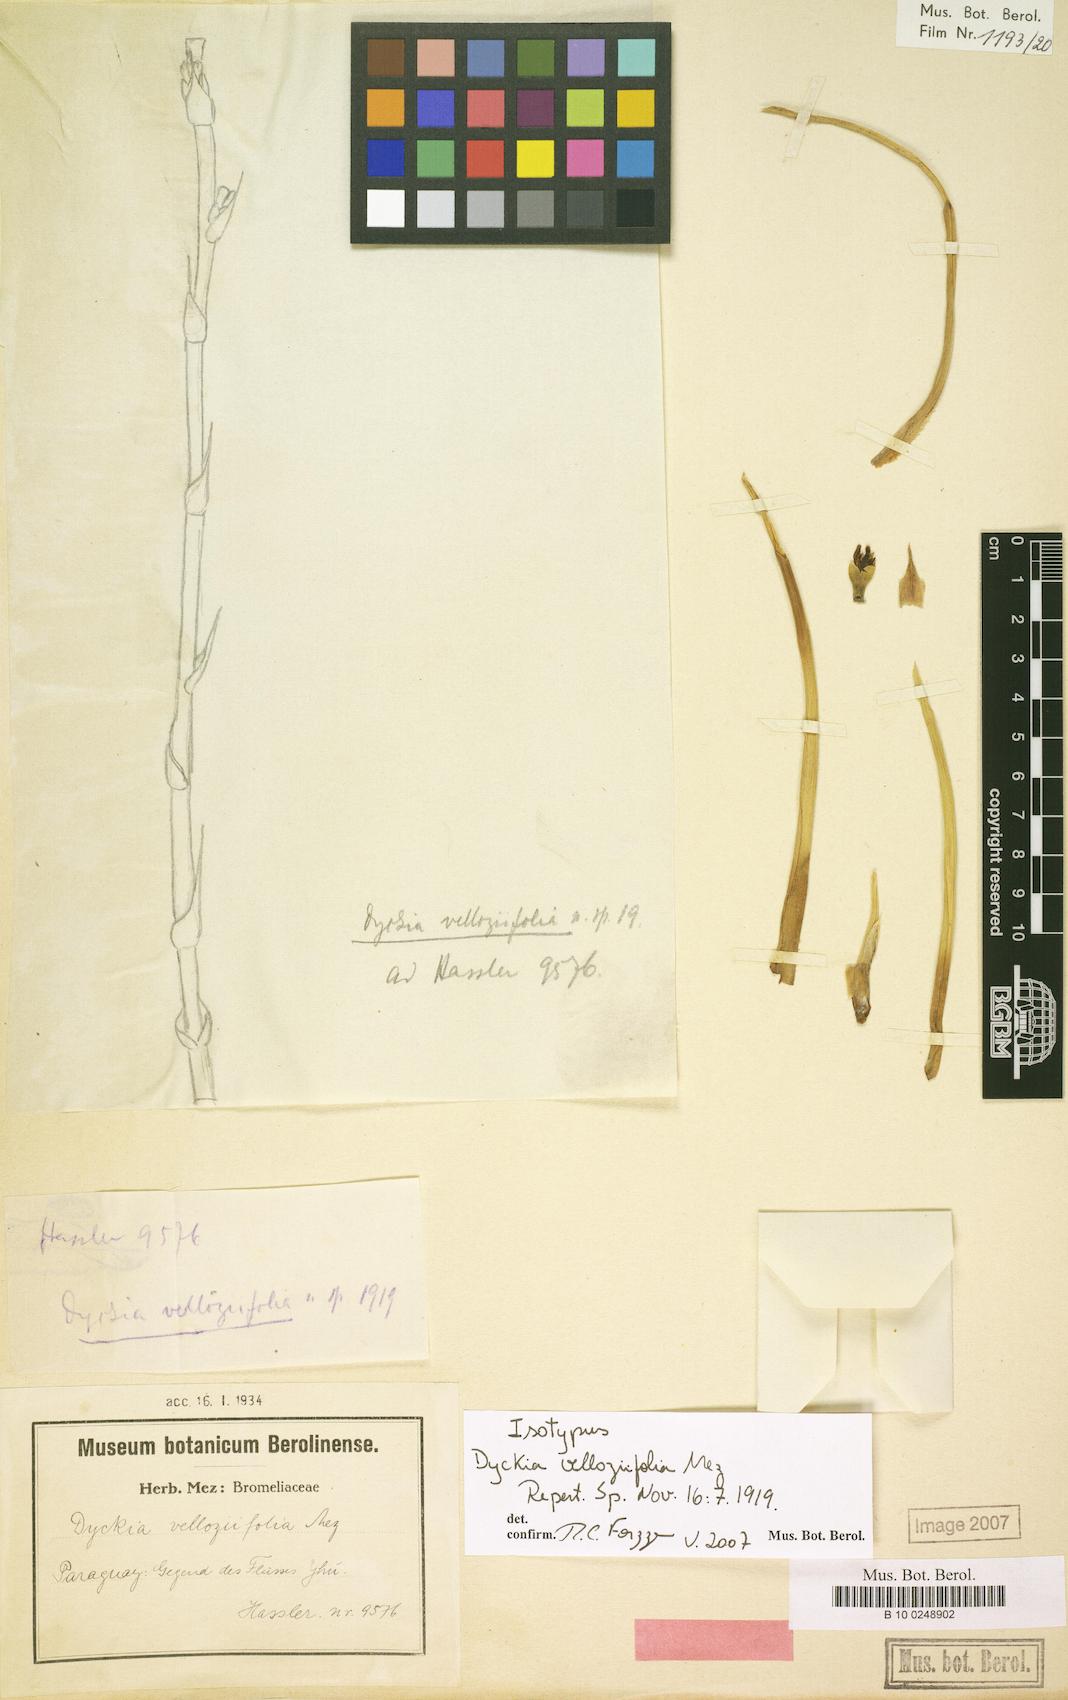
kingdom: Plantae
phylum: Tracheophyta
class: Liliopsida
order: Poales
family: Bromeliaceae
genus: Dyckia
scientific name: Dyckia velloziifolia
